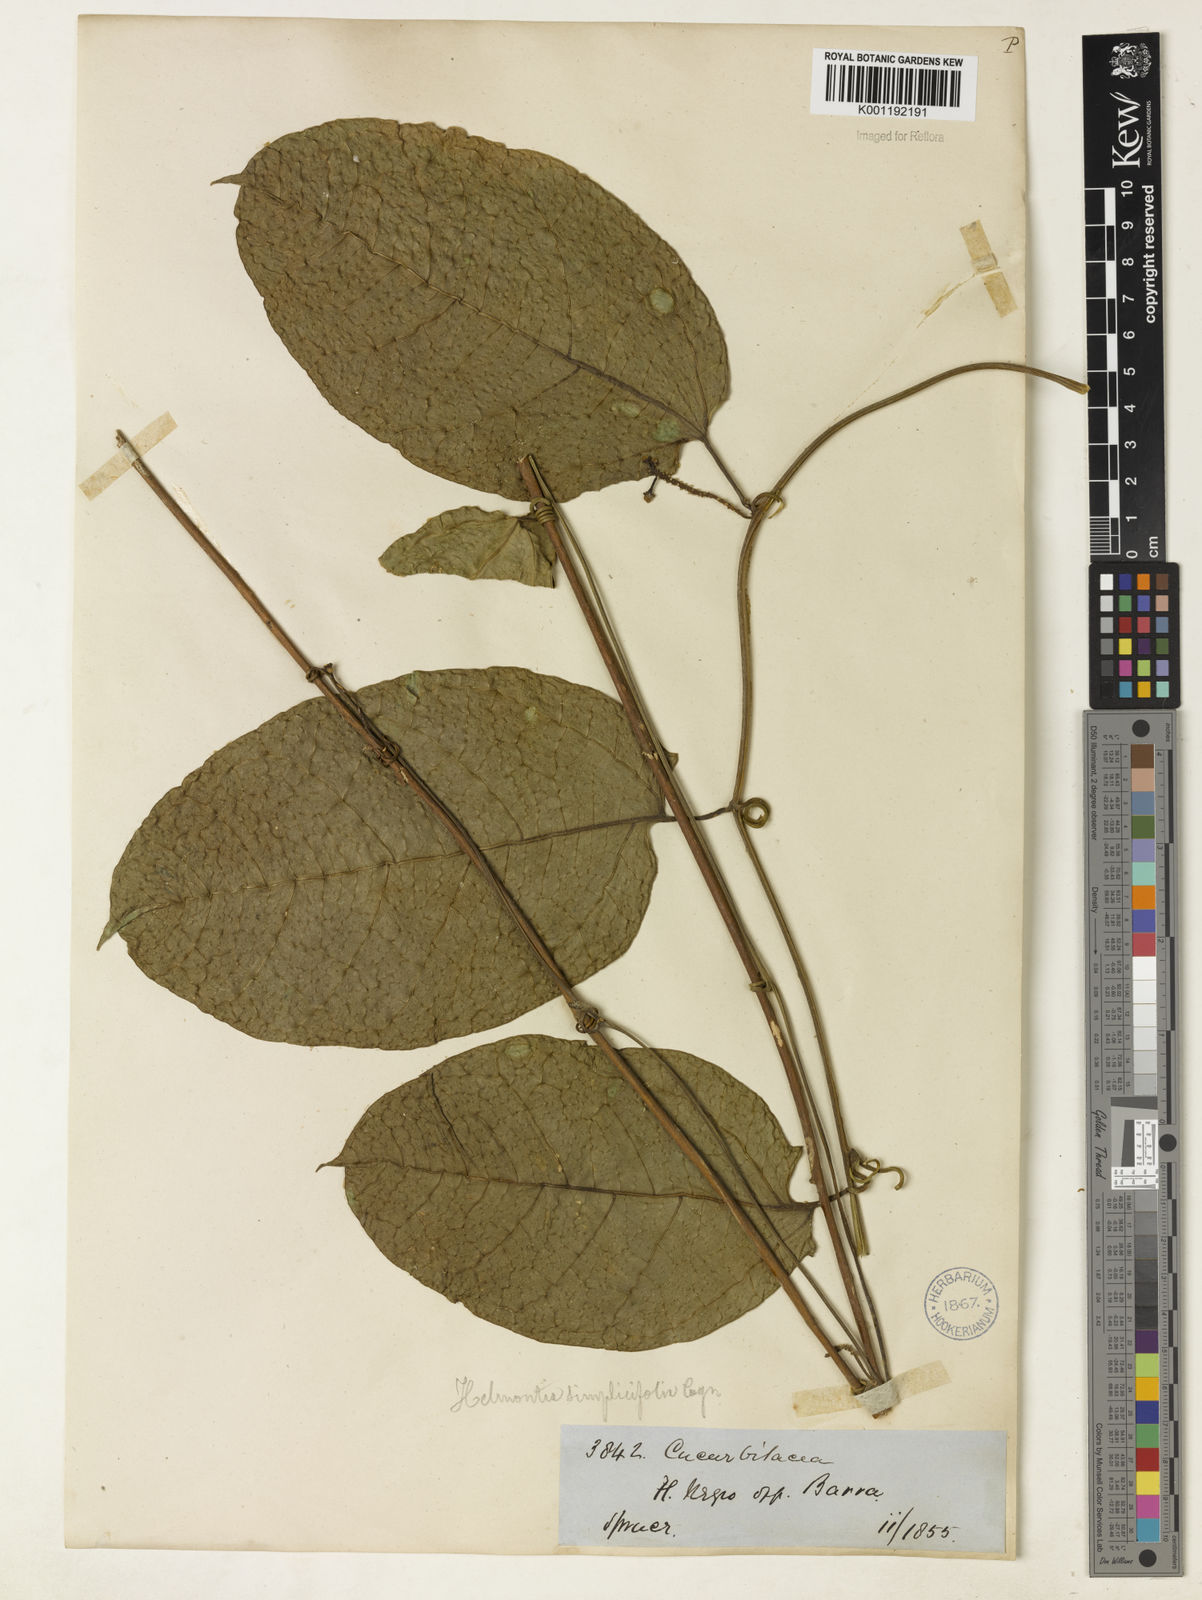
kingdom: Plantae
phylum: Tracheophyta
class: Magnoliopsida
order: Cucurbitales
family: Cucurbitaceae
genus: Helmontia
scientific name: Helmontia leptantha
